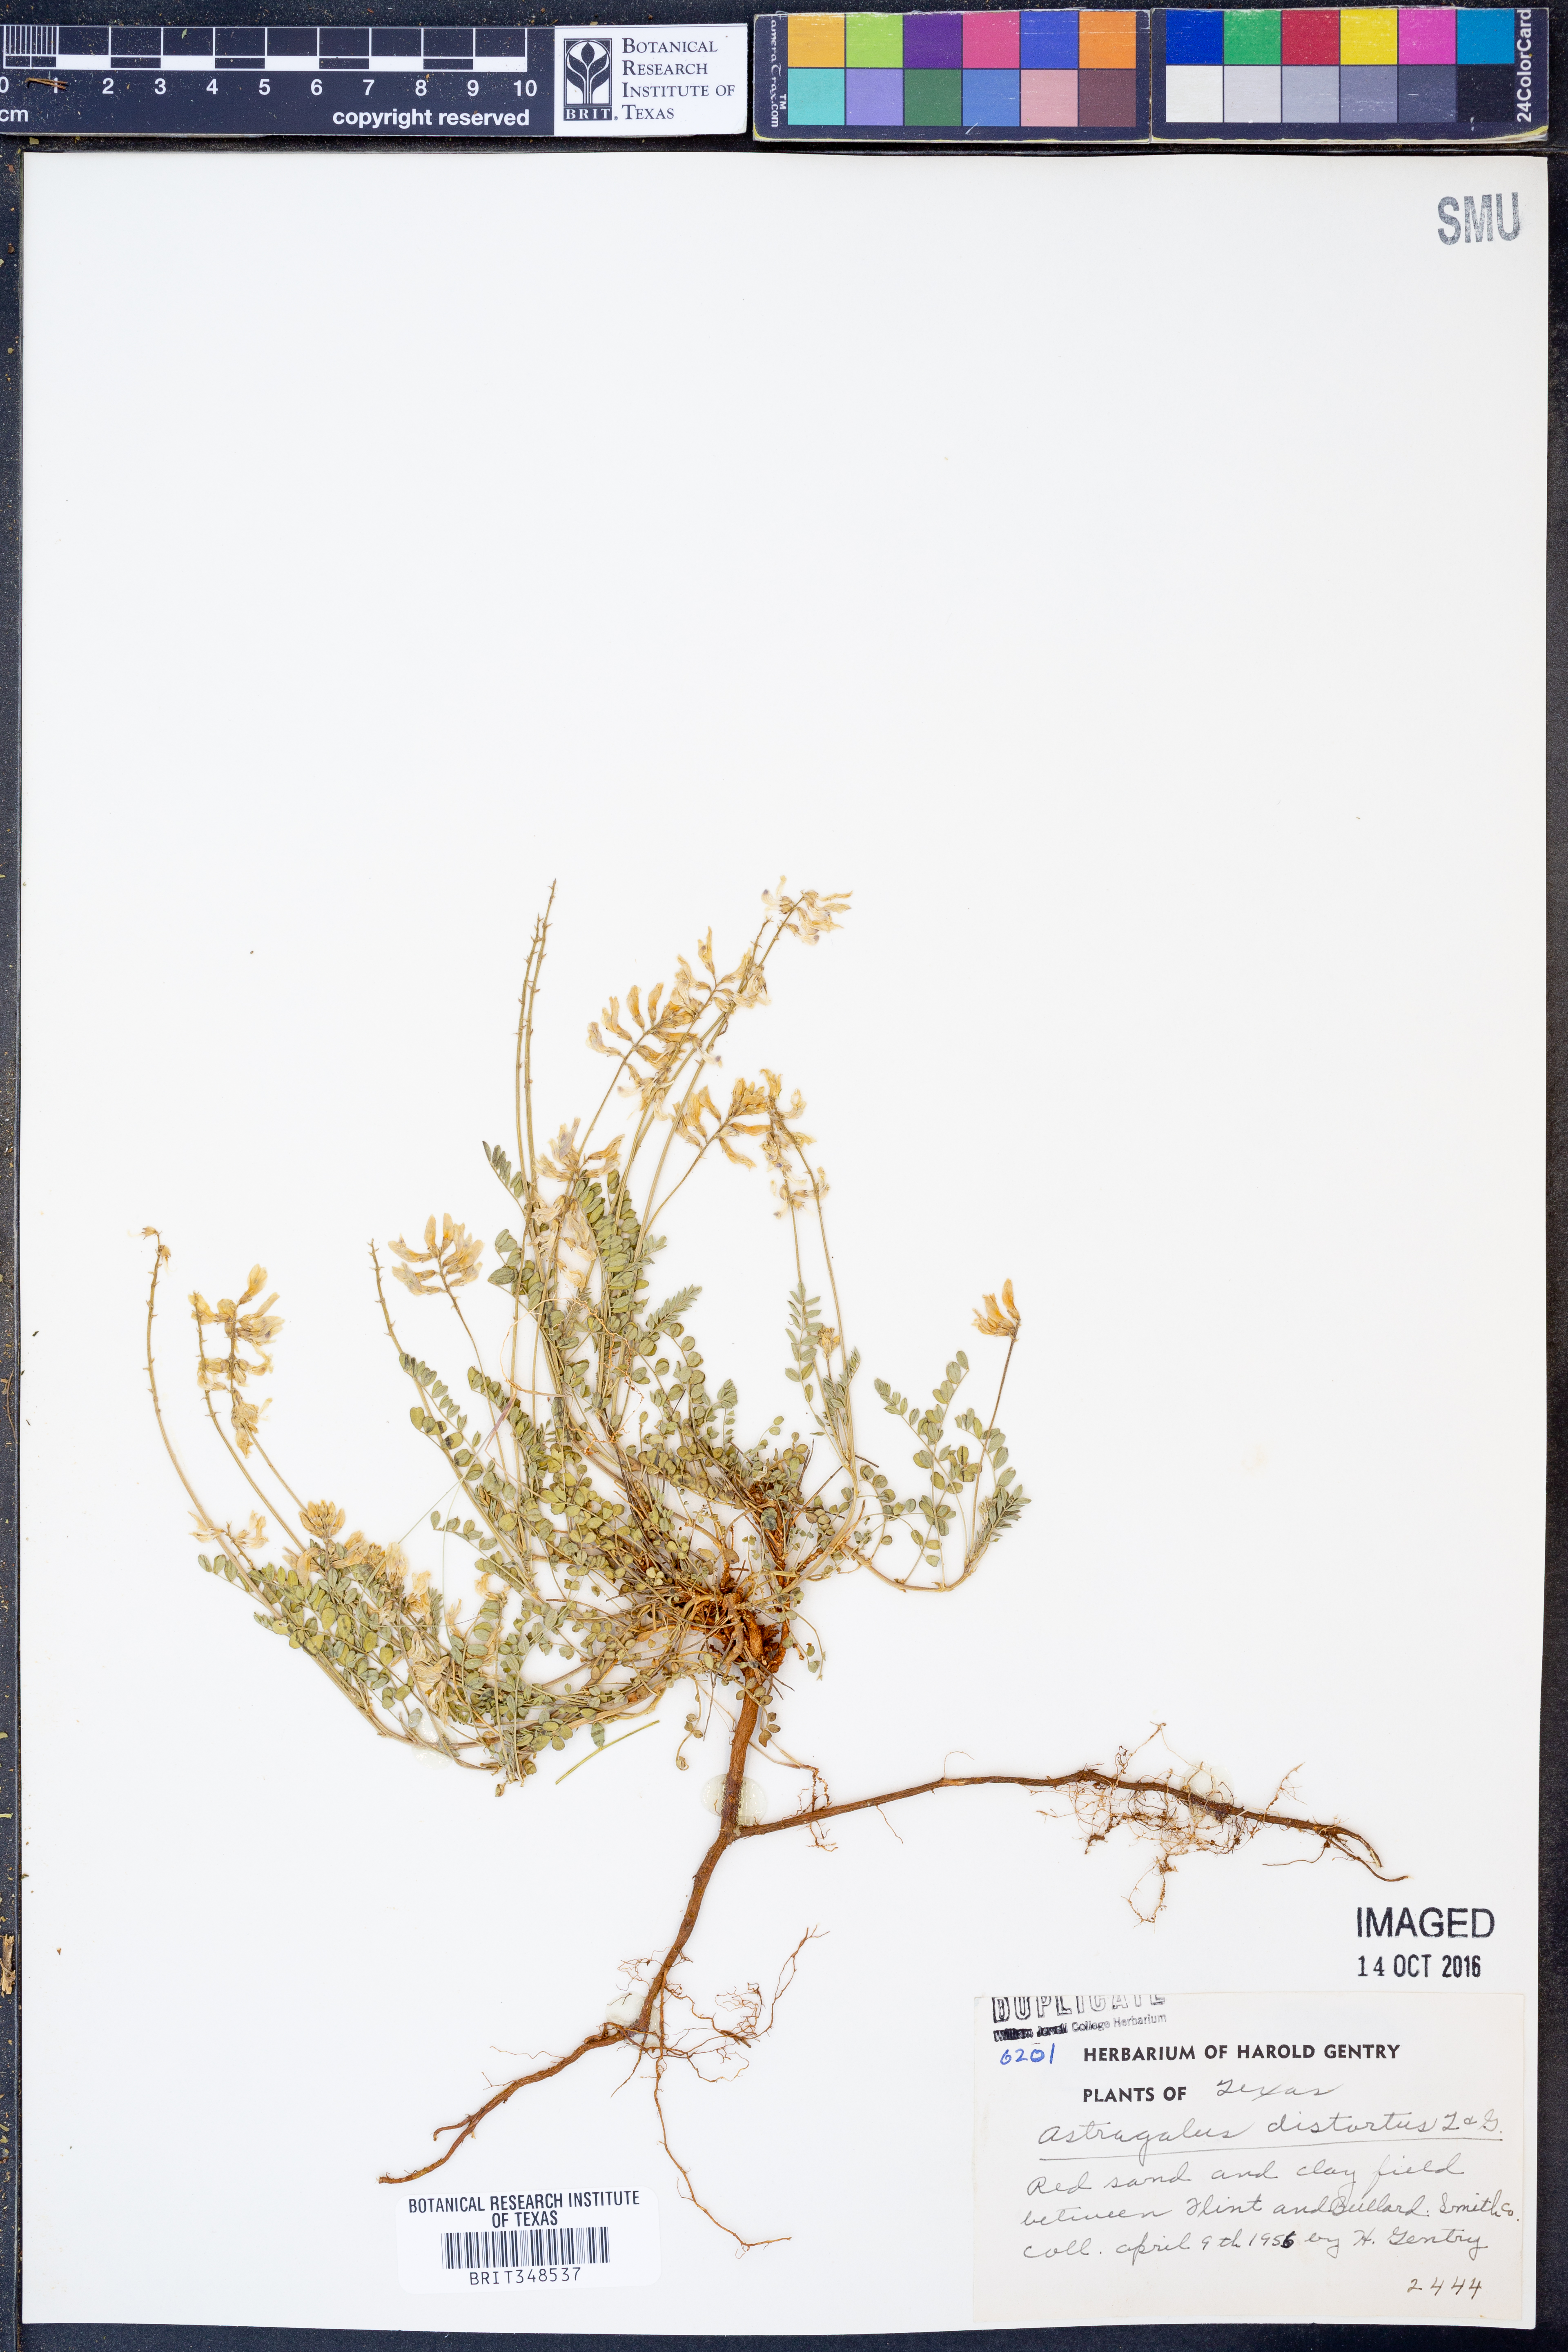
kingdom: Plantae
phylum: Tracheophyta
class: Magnoliopsida
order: Fabales
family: Fabaceae
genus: Astragalus
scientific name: Astragalus distortus
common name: Ozark milk-vetch
